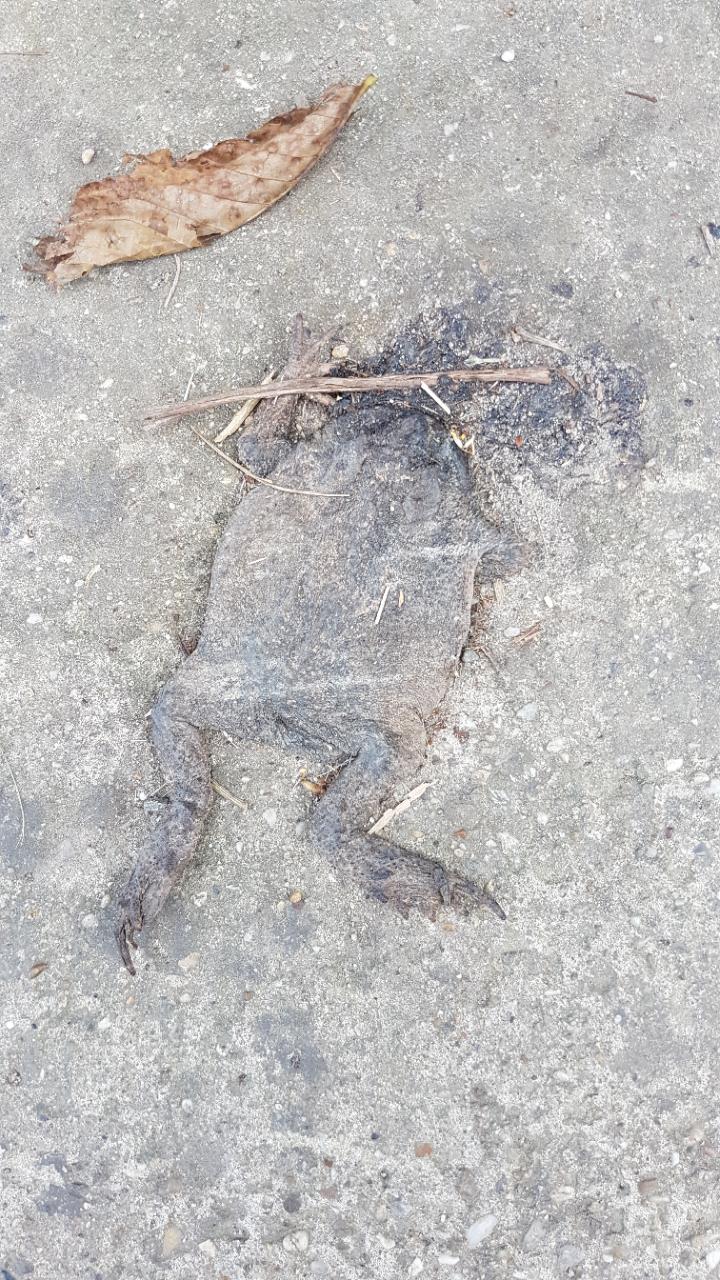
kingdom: Animalia
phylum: Chordata
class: Amphibia
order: Anura
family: Bufonidae
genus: Bufo
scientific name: Bufo bufo
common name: Common toad
